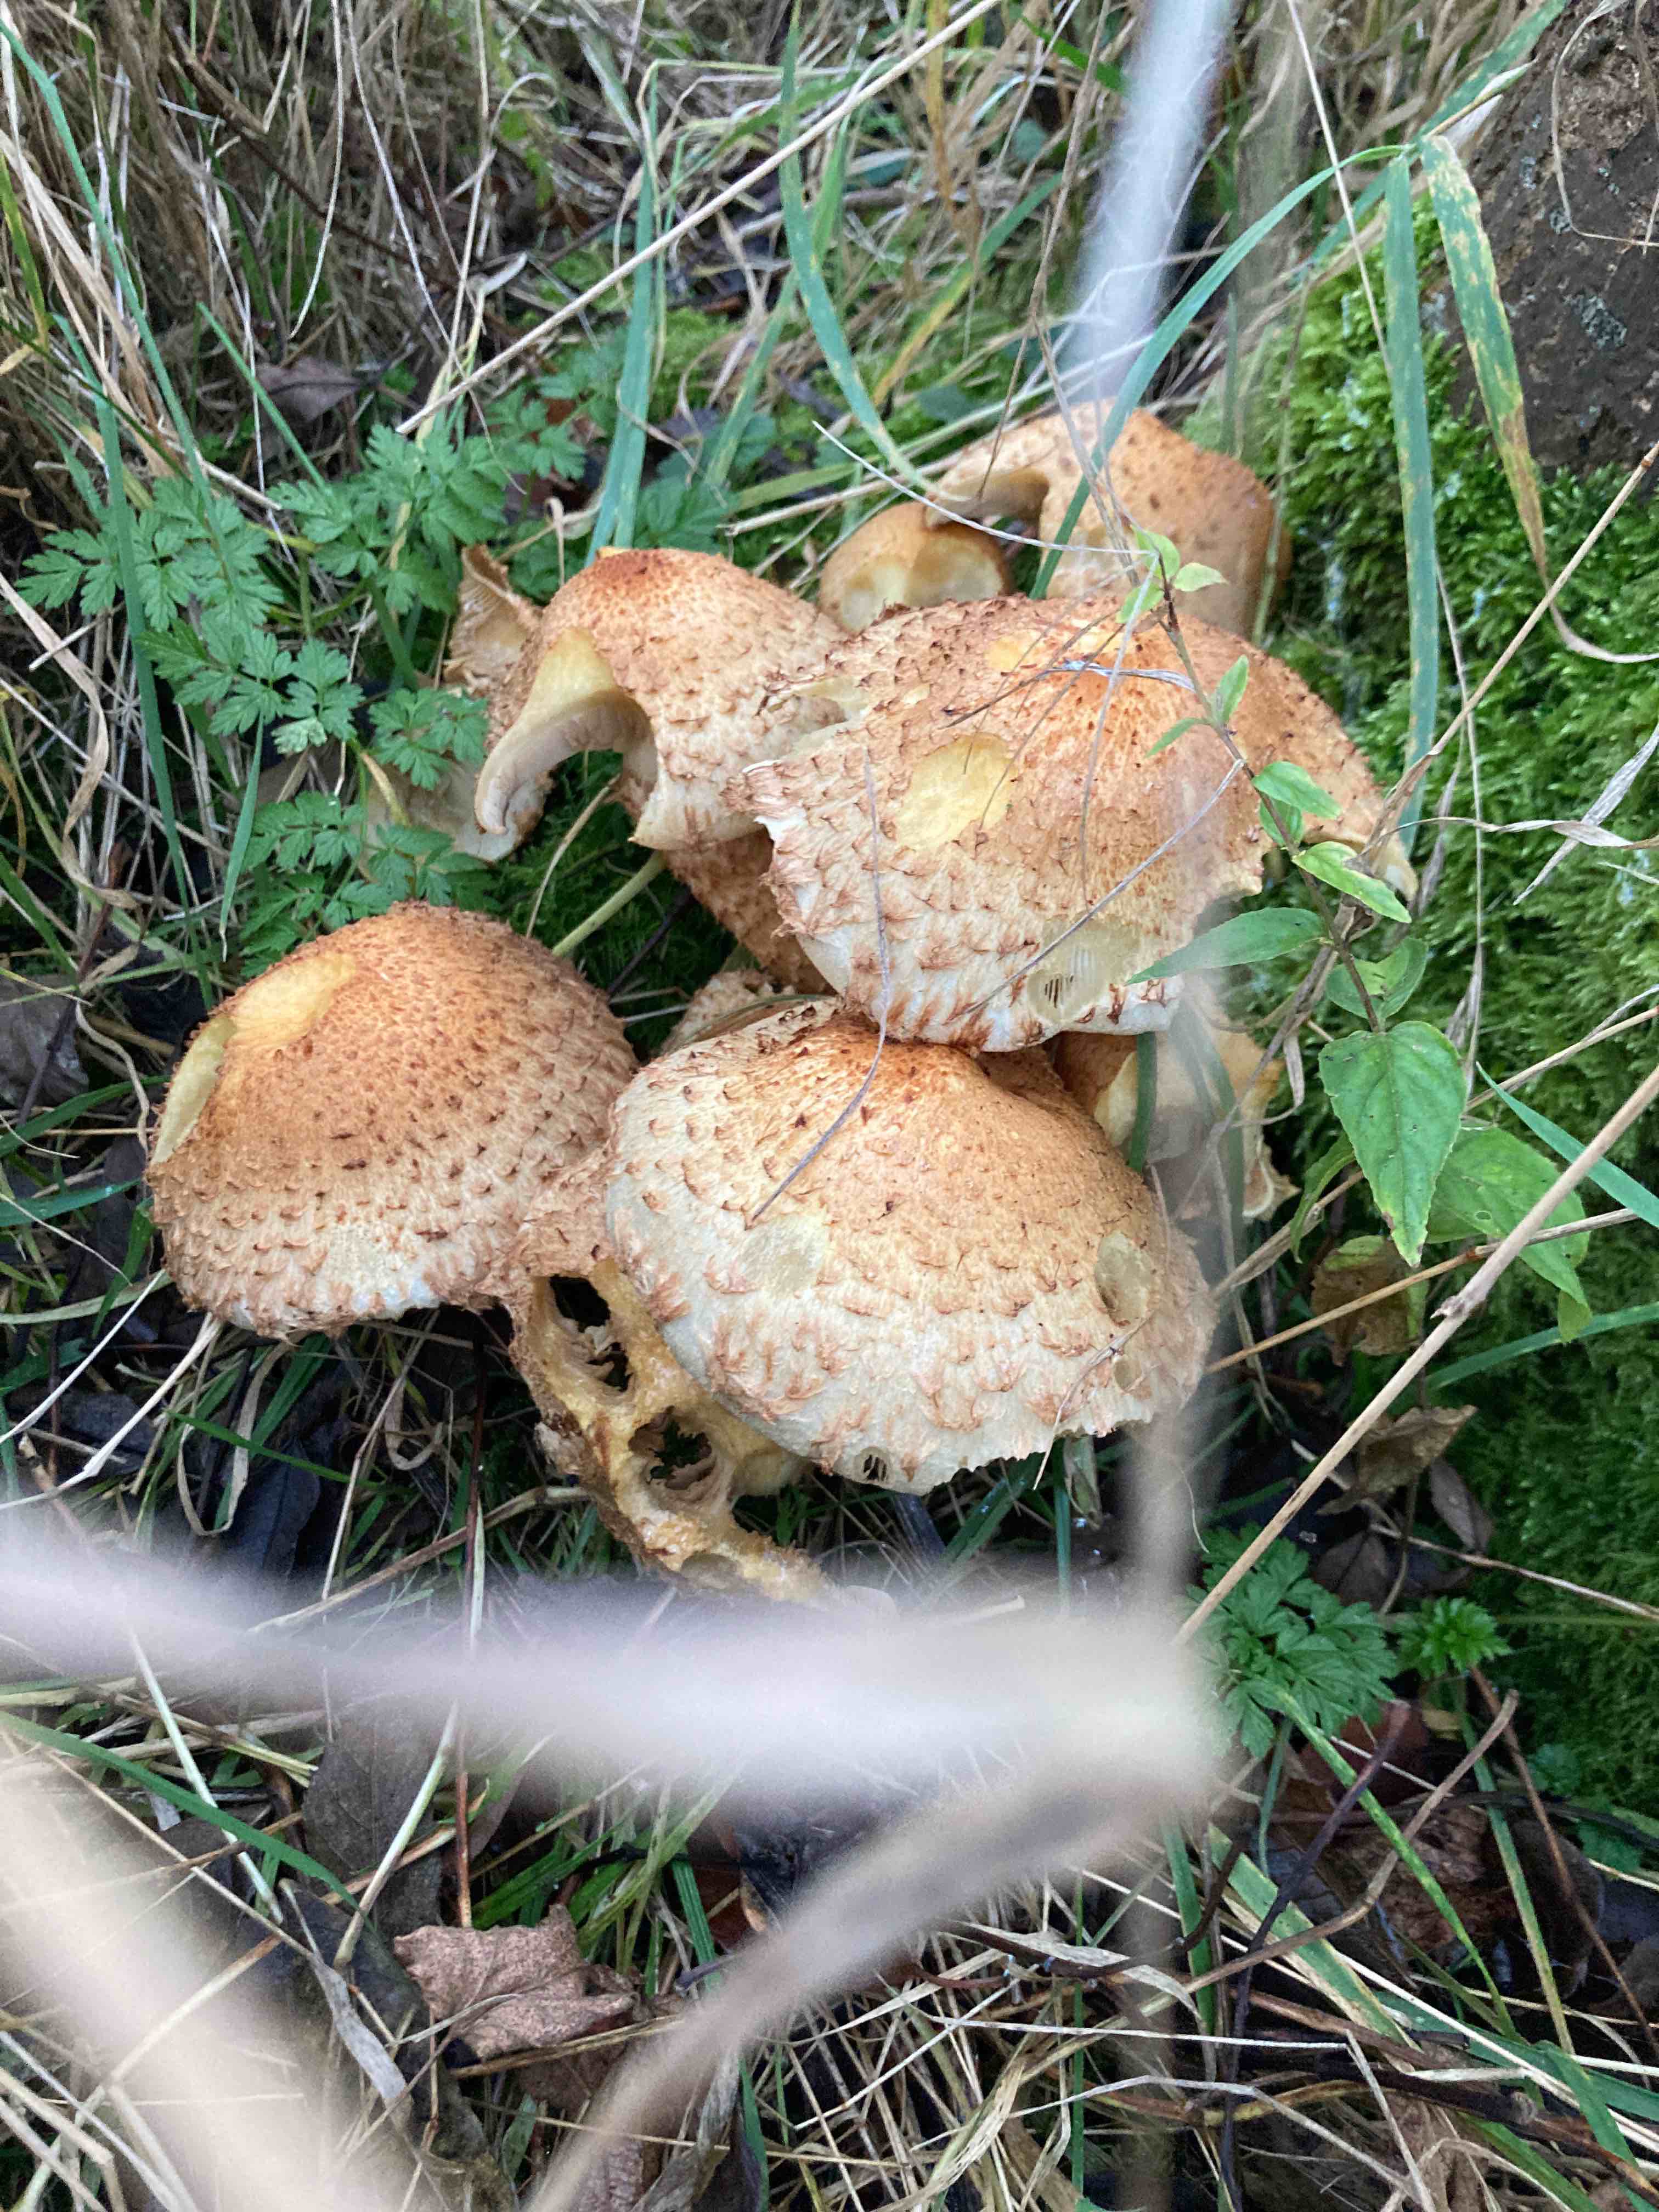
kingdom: Fungi
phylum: Basidiomycota
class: Agaricomycetes
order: Agaricales
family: Strophariaceae
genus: Pholiota
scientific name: Pholiota squarrosa
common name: krumskællet skælhat
